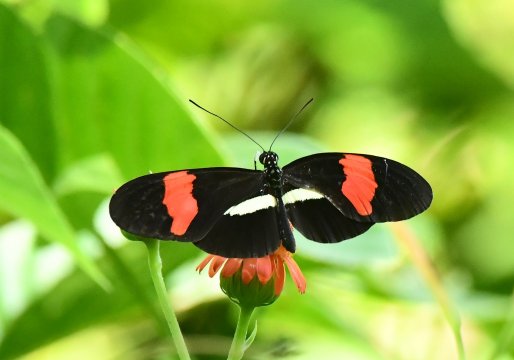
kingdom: Animalia
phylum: Arthropoda
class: Insecta
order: Lepidoptera
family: Nymphalidae
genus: Heliconius
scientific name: Heliconius erato
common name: Erato Heliconian
